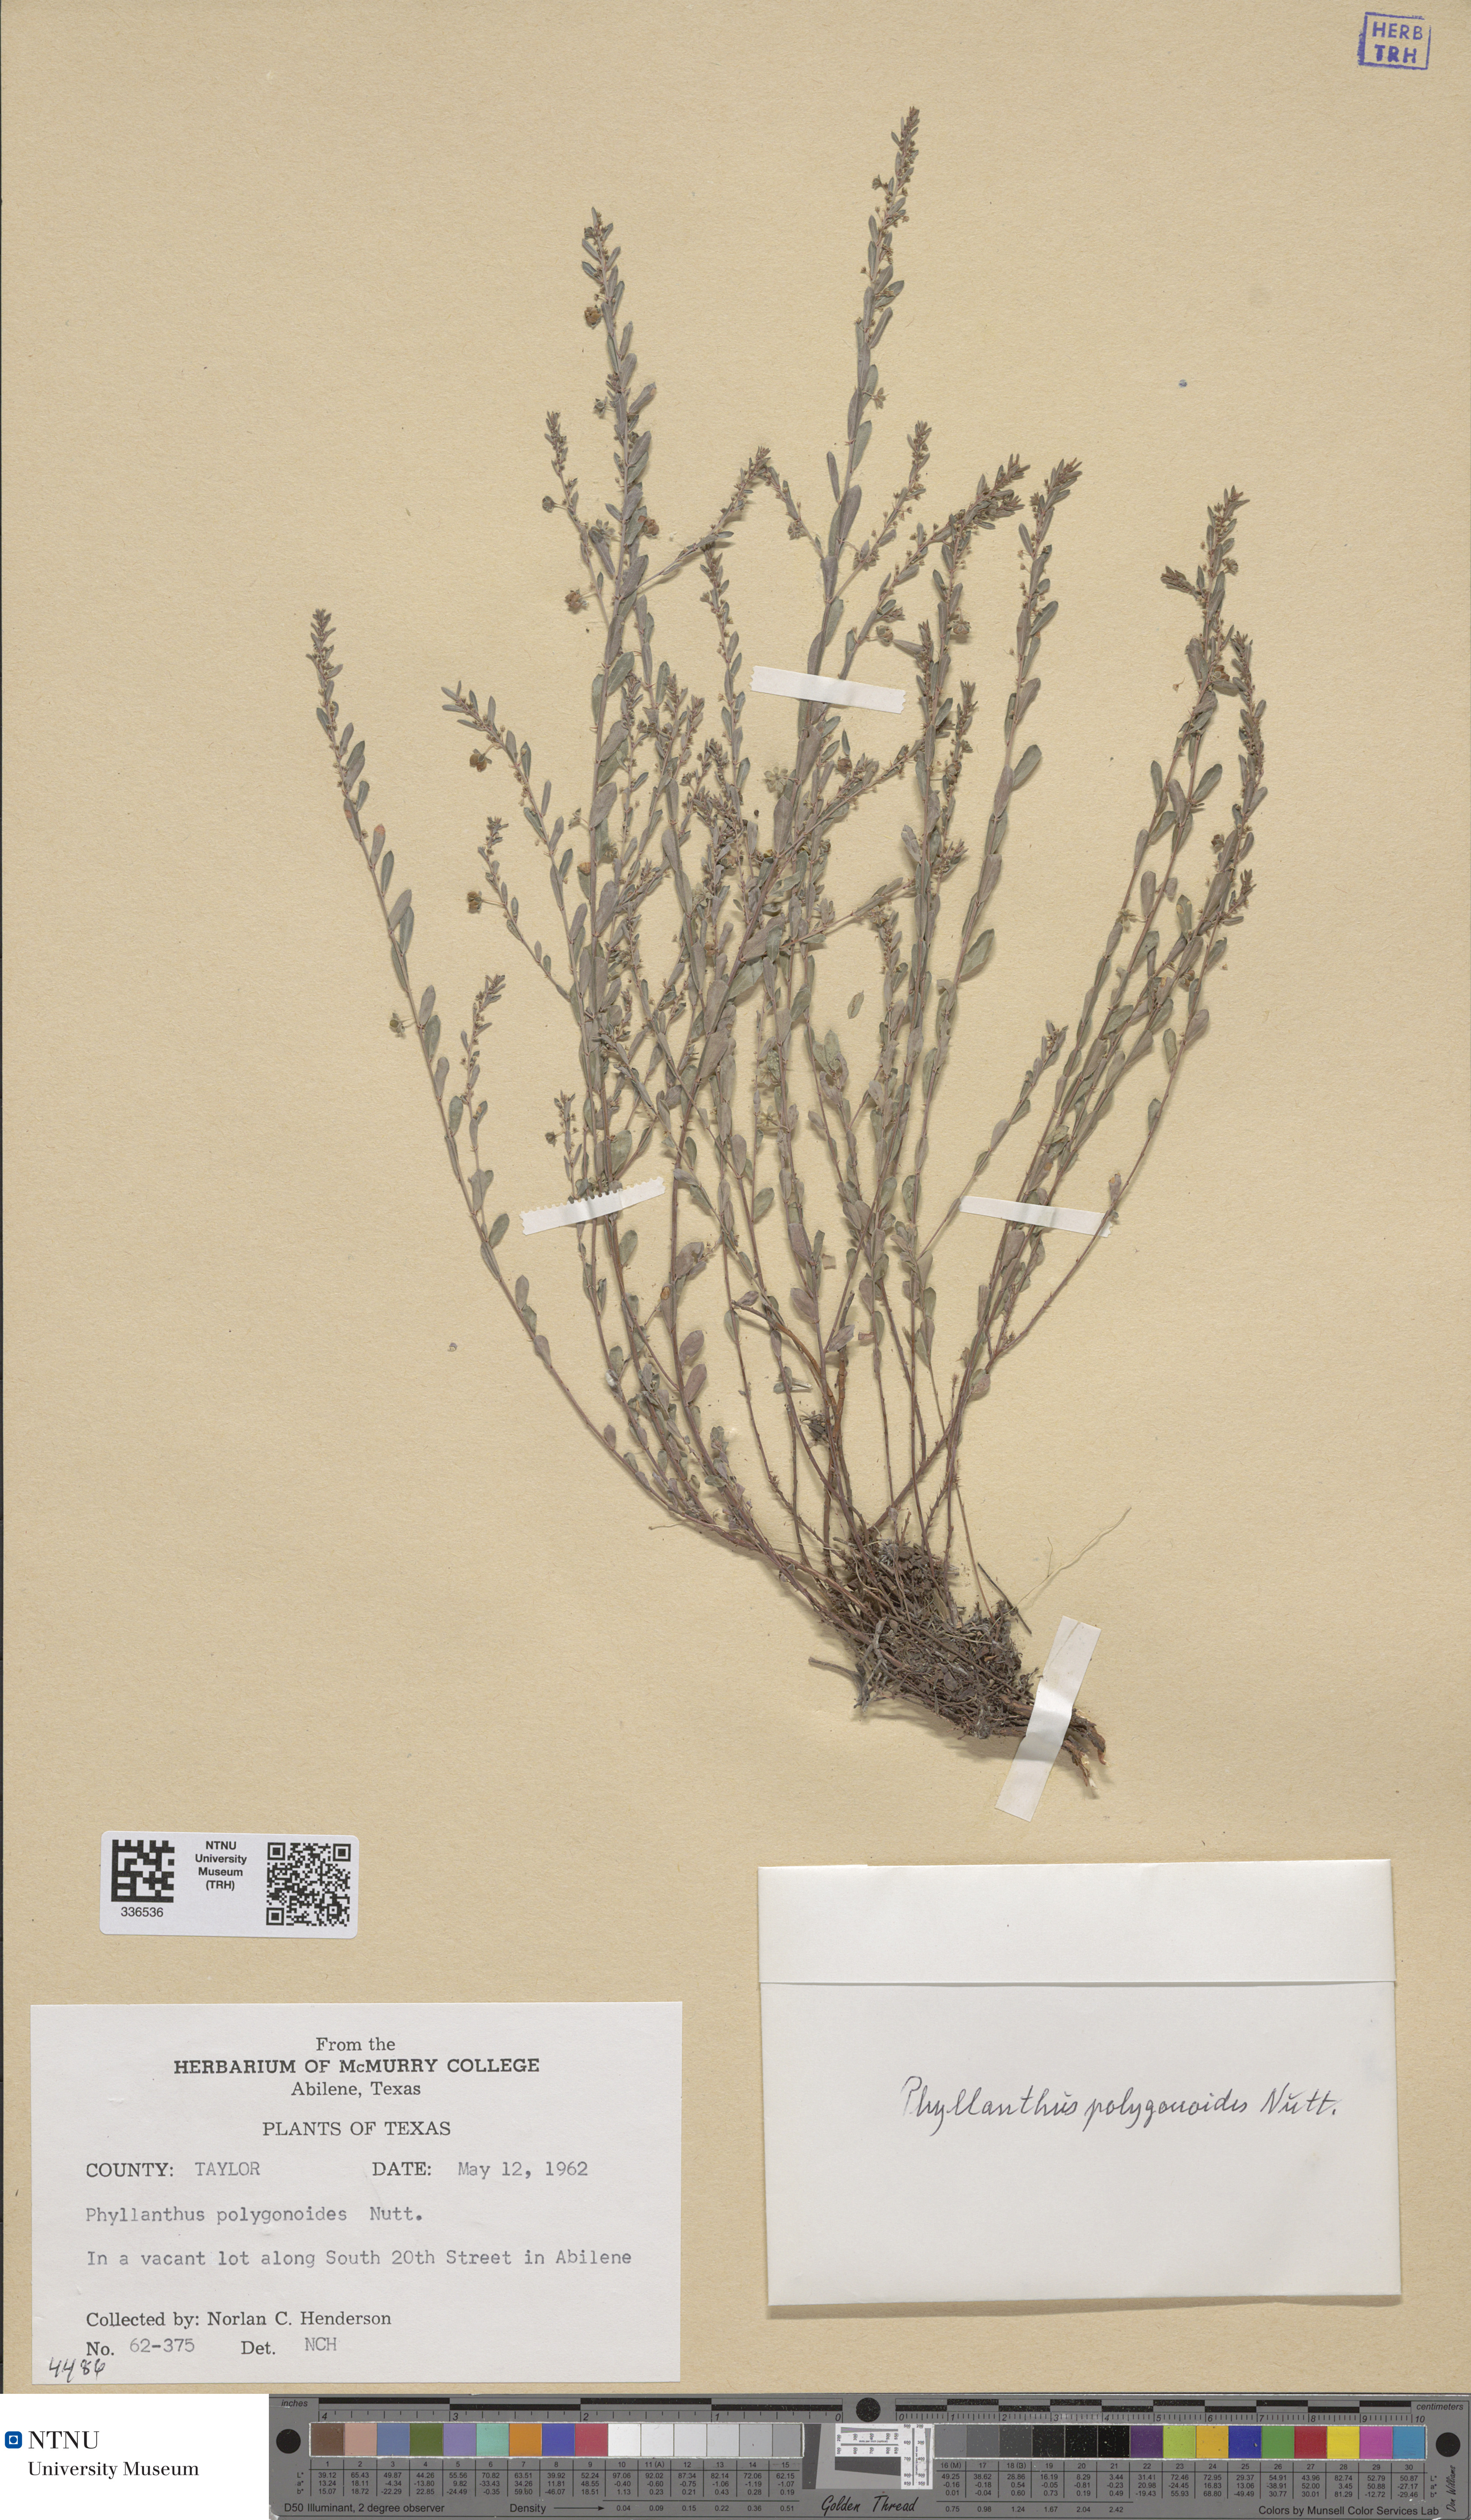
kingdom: Plantae
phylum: Tracheophyta
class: Magnoliopsida
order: Malpighiales
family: Phyllanthaceae
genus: Phyllanthus
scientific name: Phyllanthus polygonoides
